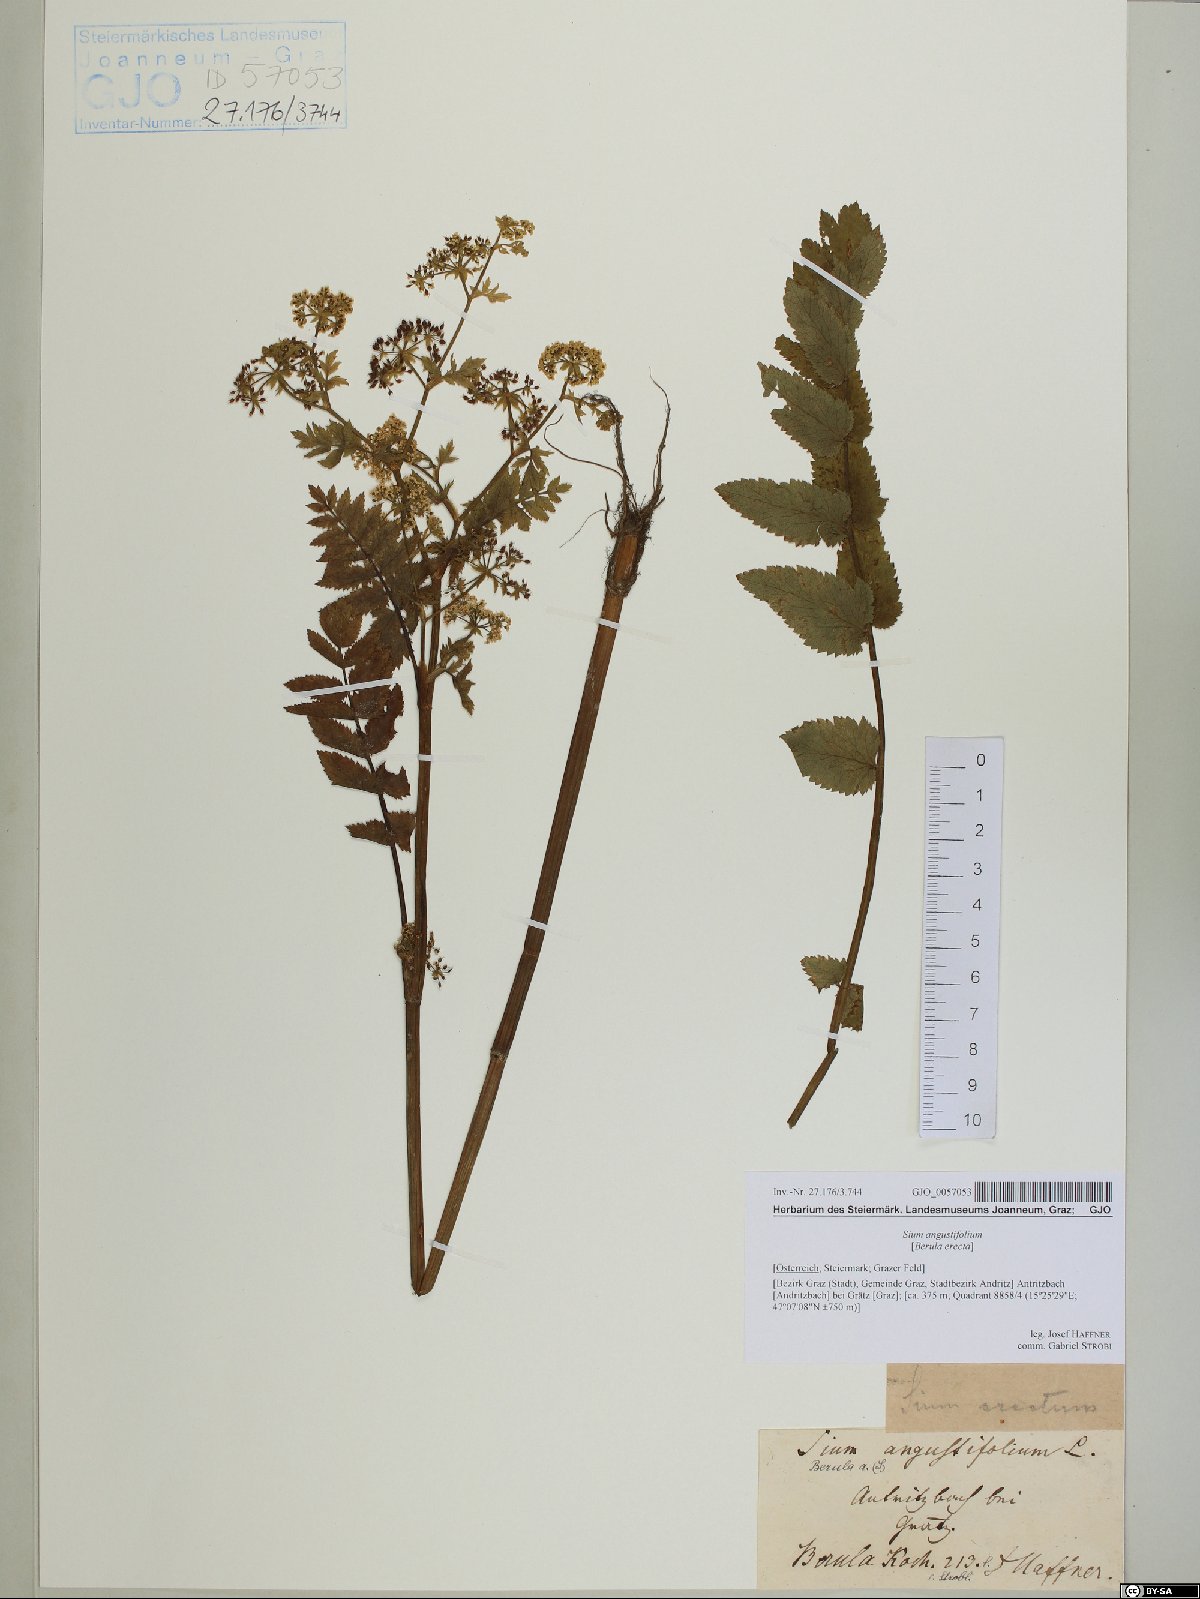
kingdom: Plantae
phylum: Tracheophyta
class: Magnoliopsida
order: Apiales
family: Apiaceae
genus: Berula
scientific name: Berula erecta
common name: Lesser water-parsnip
